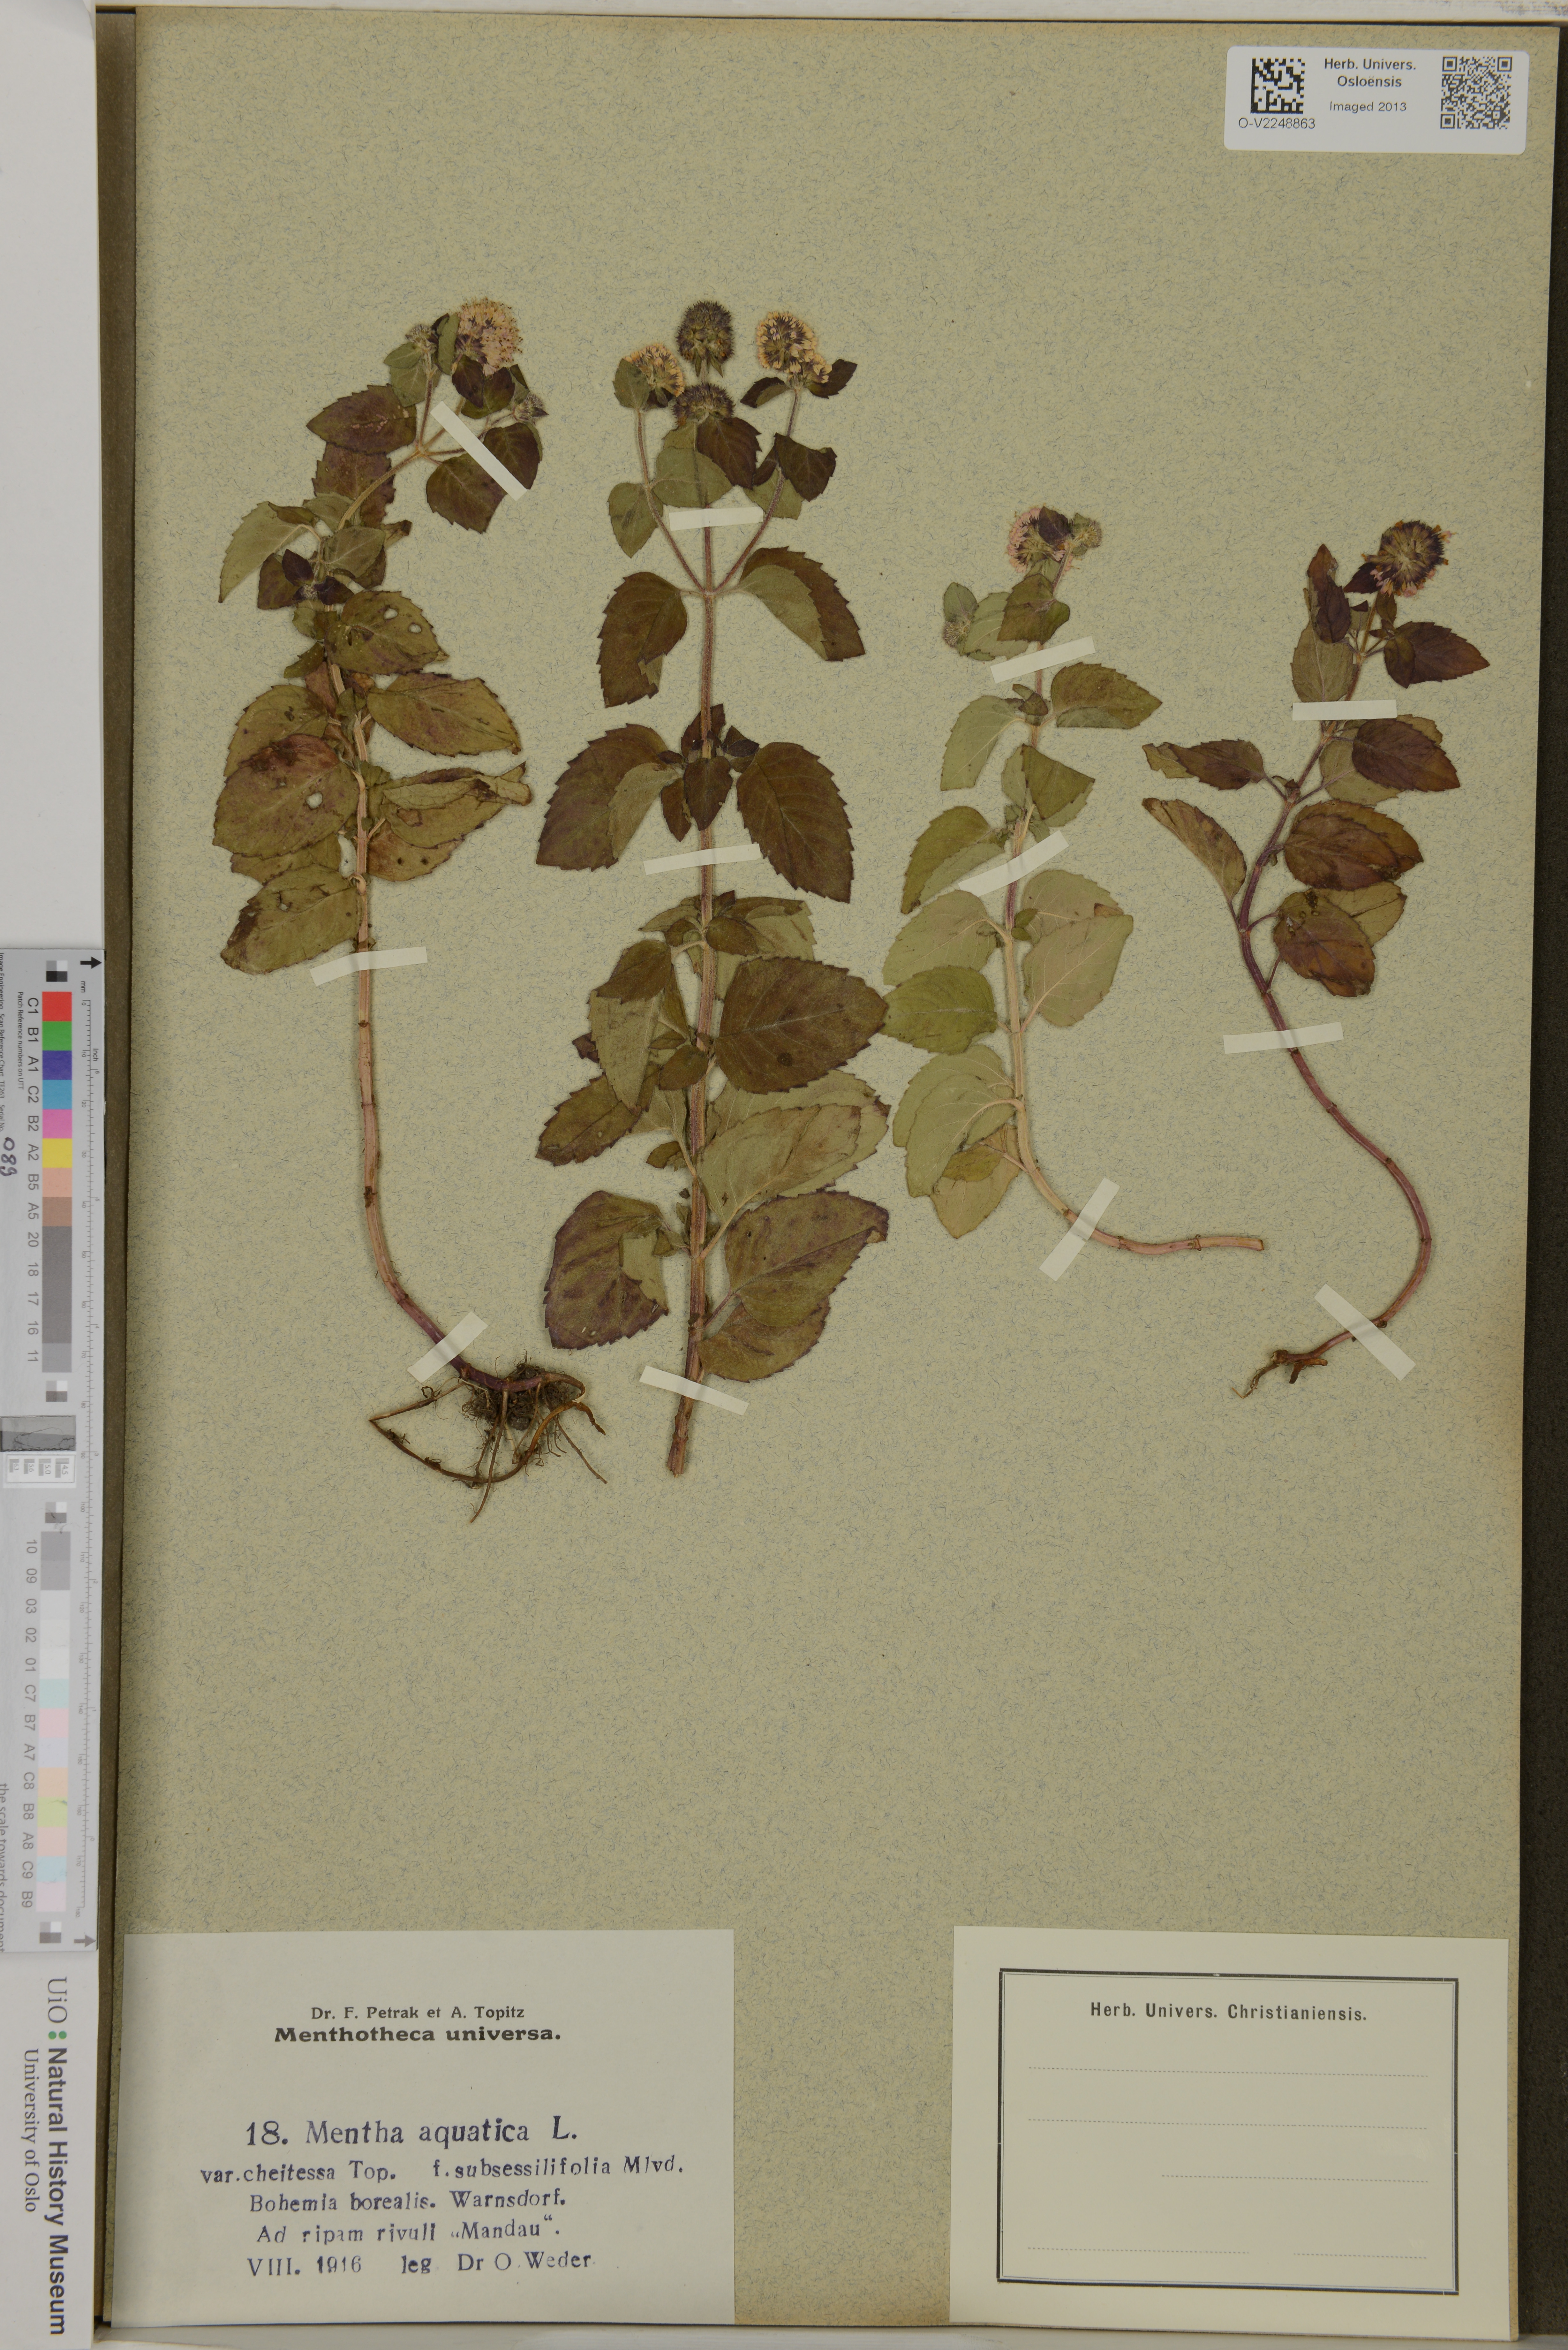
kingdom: Plantae
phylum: Tracheophyta
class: Magnoliopsida
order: Lamiales
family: Lamiaceae
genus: Mentha
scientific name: Mentha aquatica
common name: Water mint
